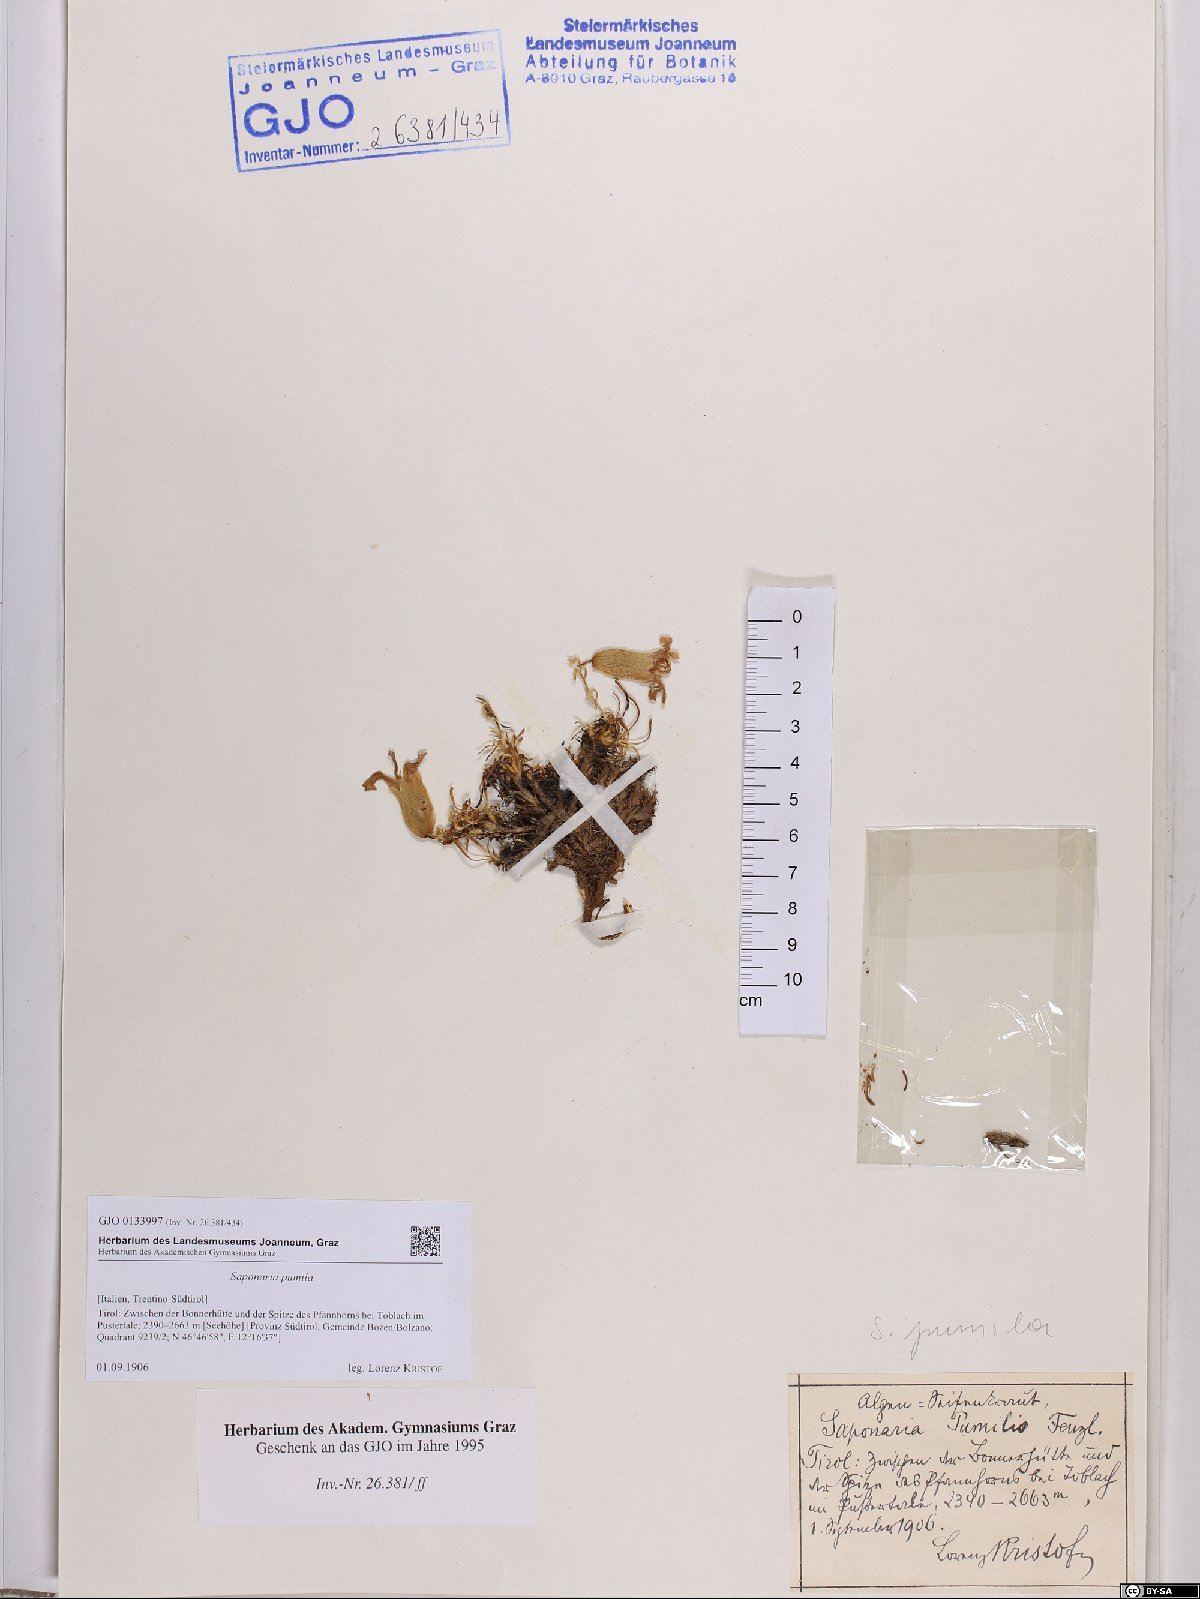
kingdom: Plantae
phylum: Tracheophyta
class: Magnoliopsida
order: Caryophyllales
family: Caryophyllaceae
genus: Saponaria
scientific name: Saponaria pumila
